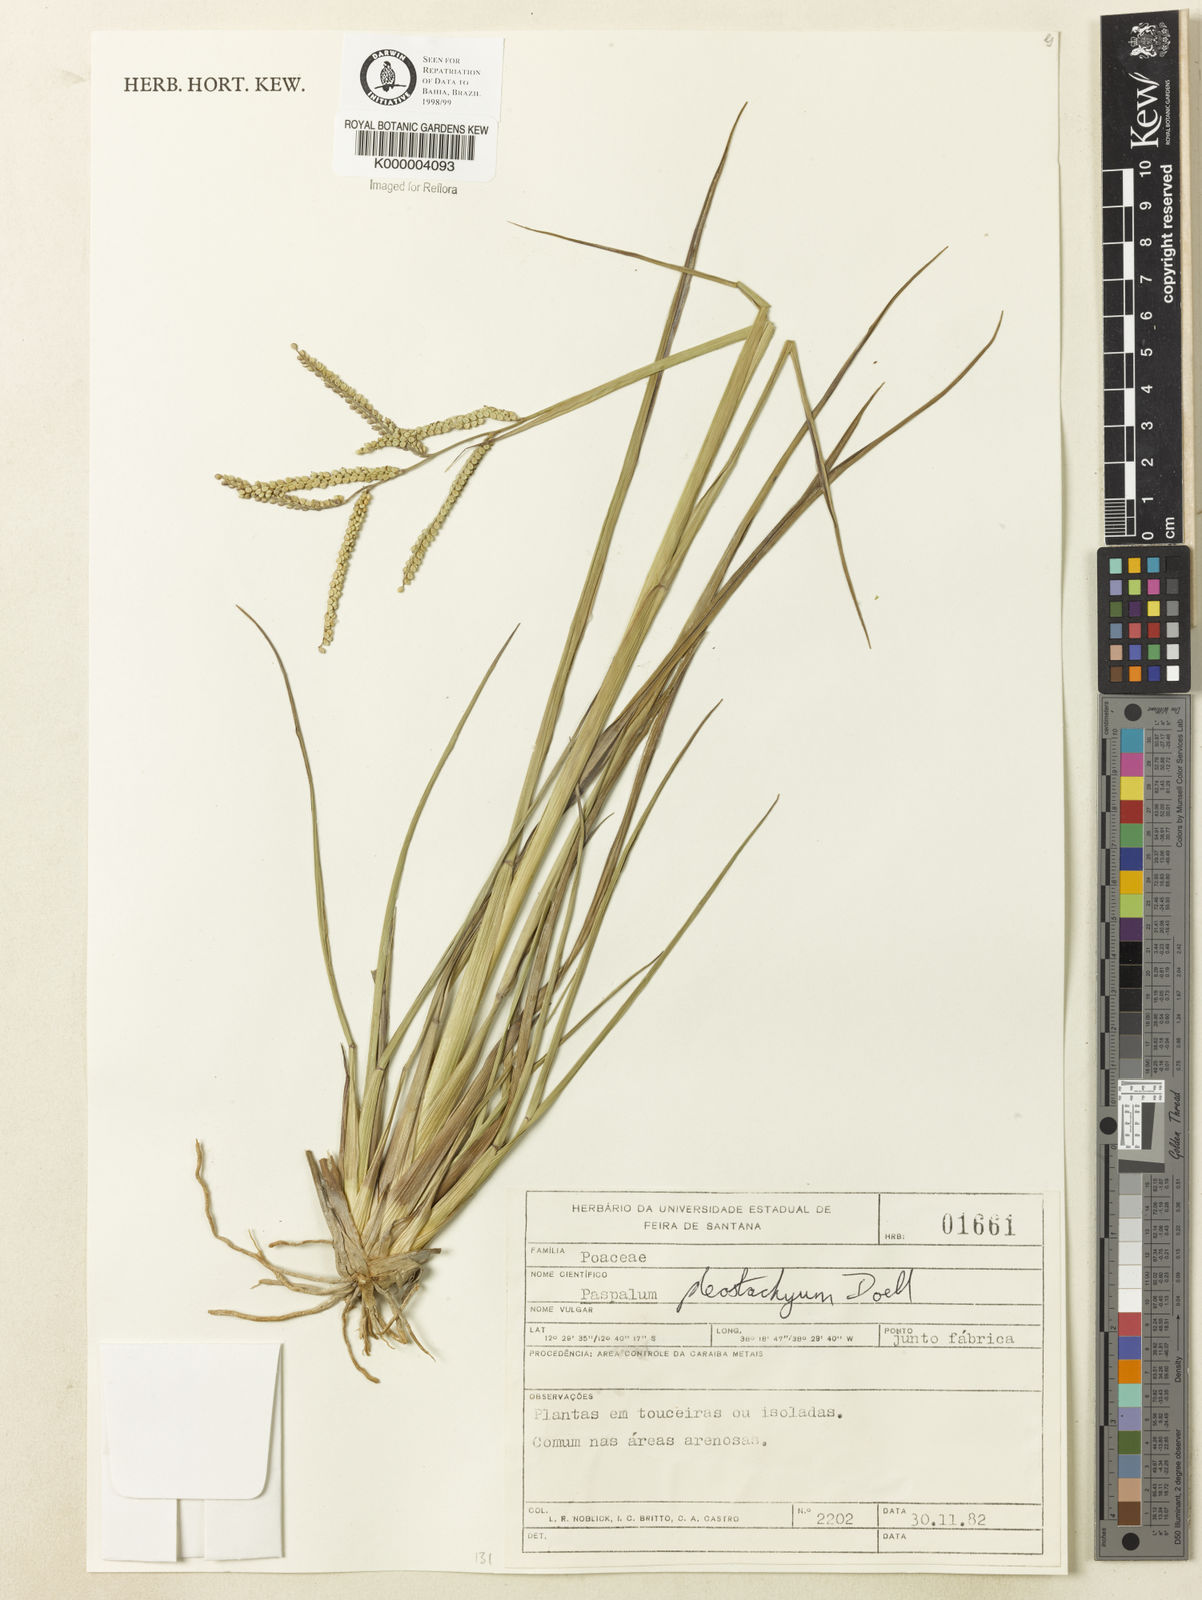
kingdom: Plantae
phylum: Tracheophyta
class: Liliopsida
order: Poales
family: Poaceae
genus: Paspalum
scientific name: Paspalum
